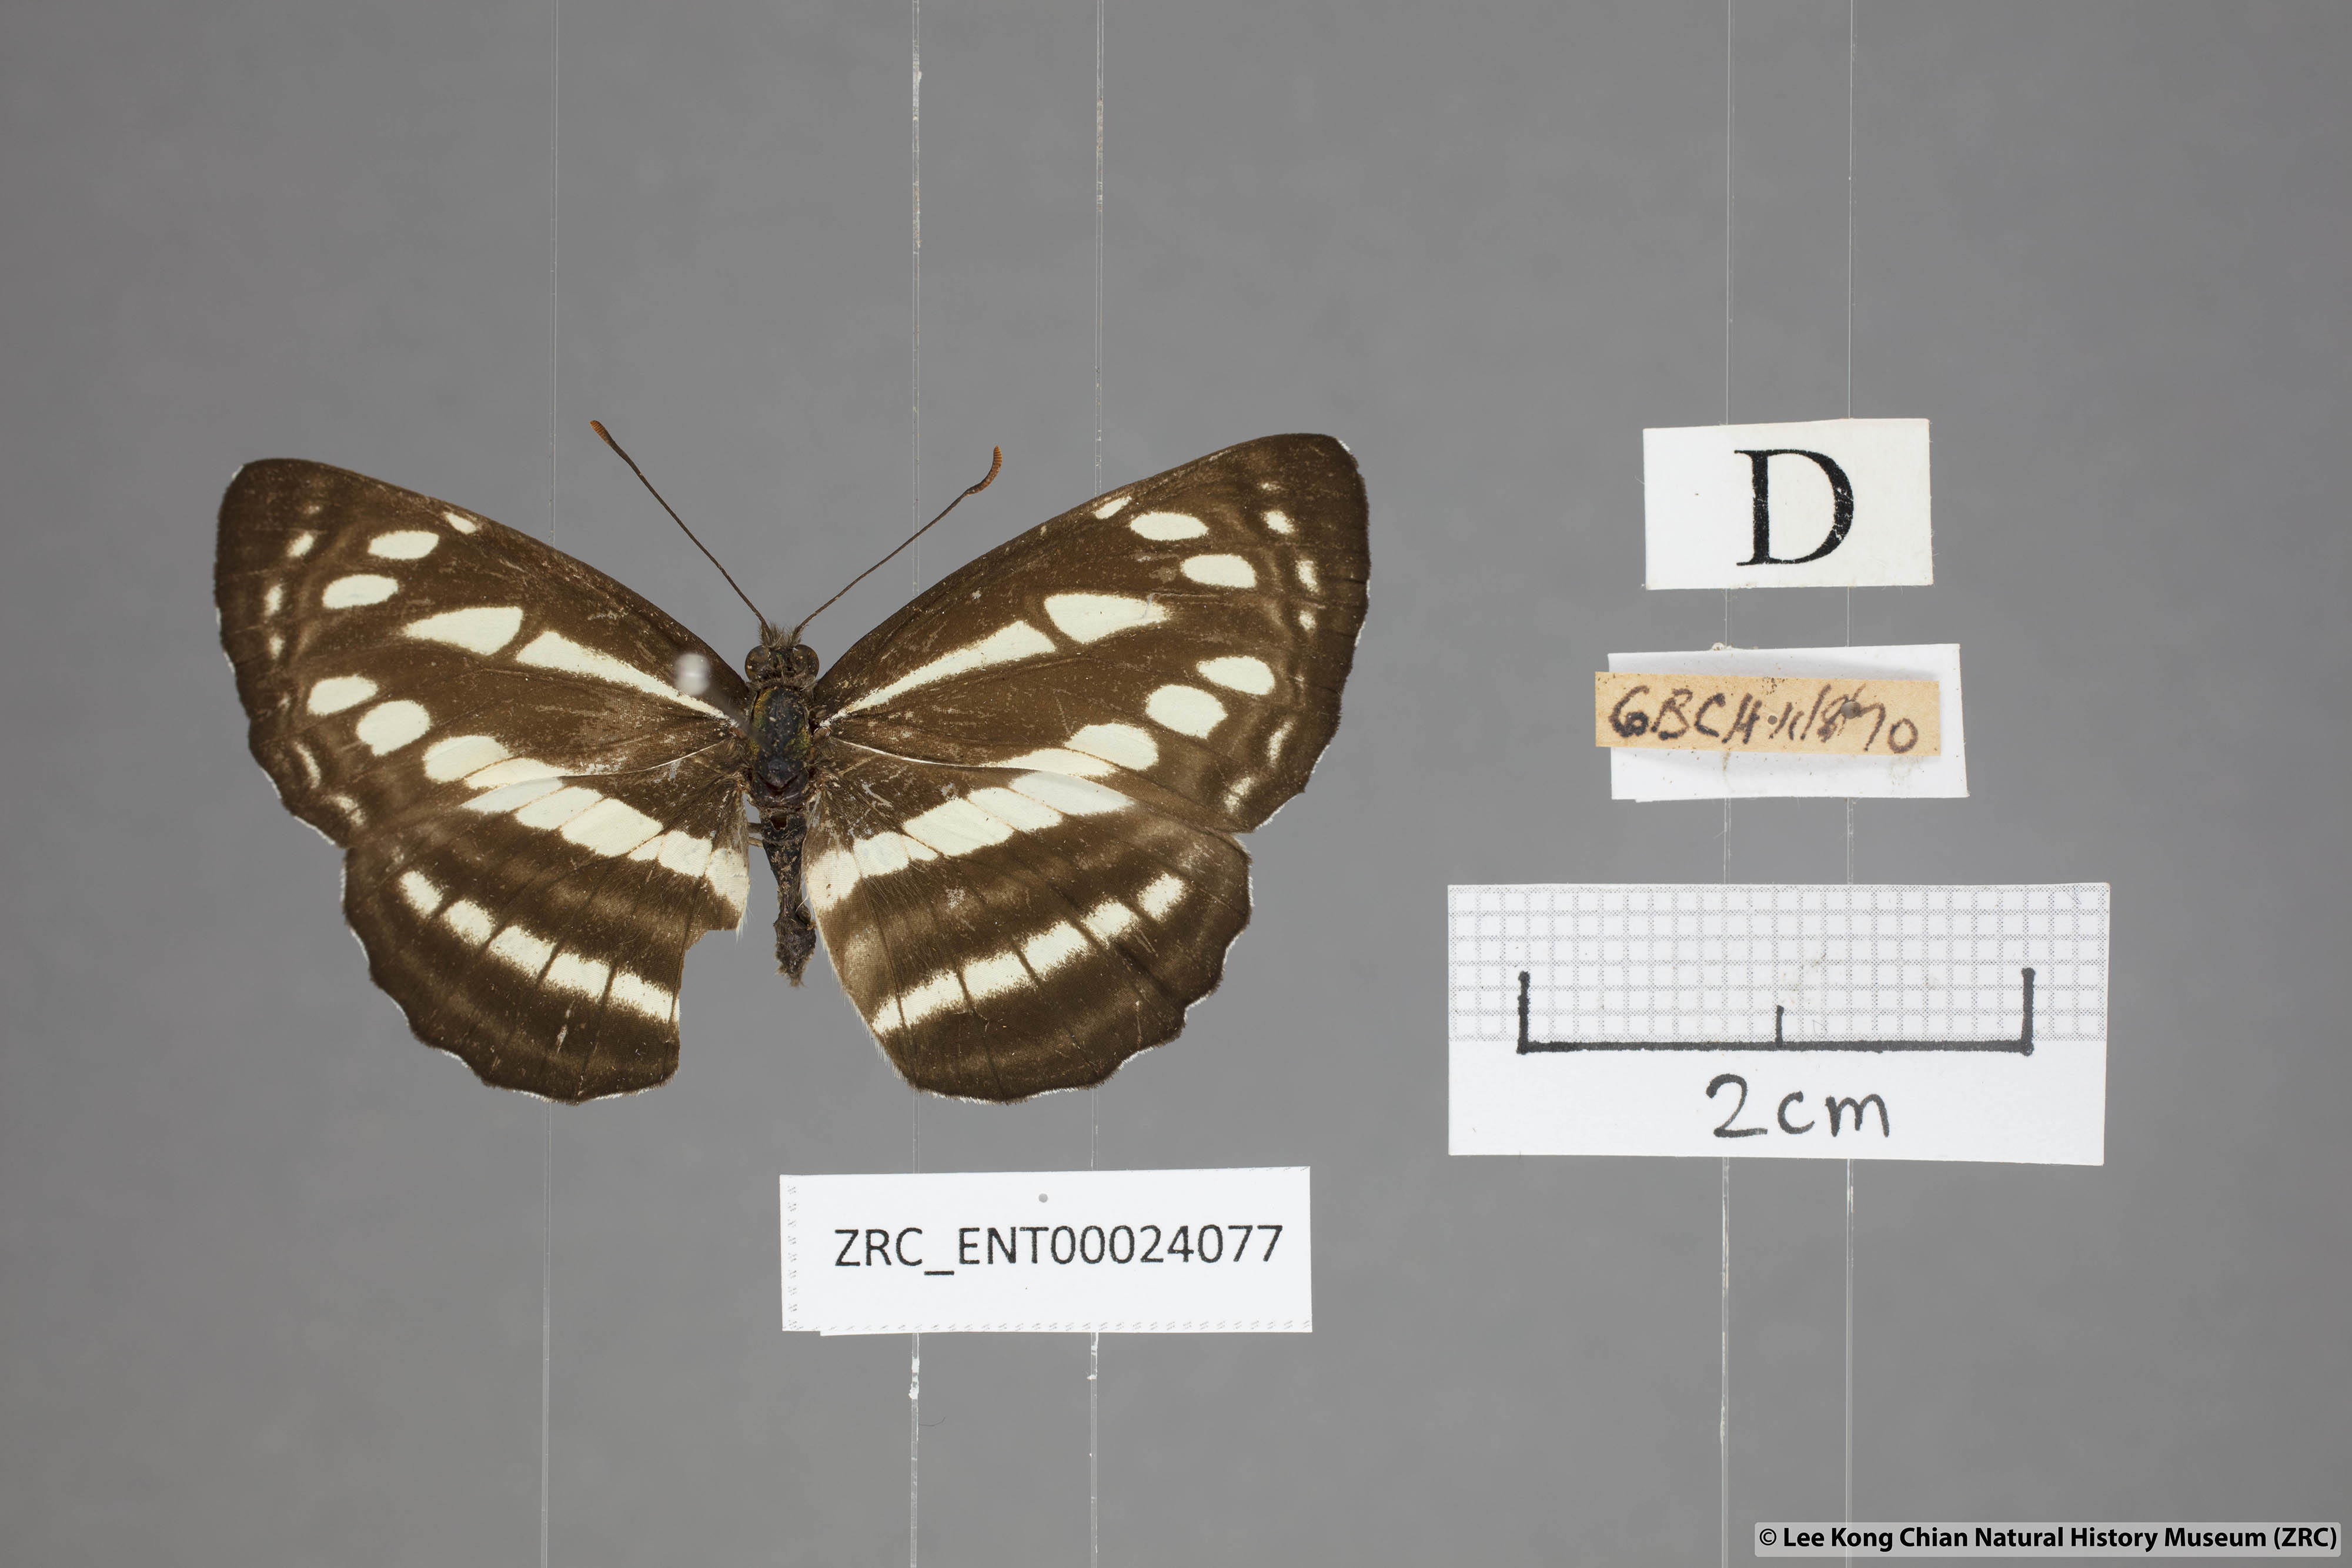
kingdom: Animalia
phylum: Arthropoda
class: Insecta
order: Lepidoptera
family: Nymphalidae
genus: Neptis
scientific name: Neptis soma
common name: Cream-spotted sailor
